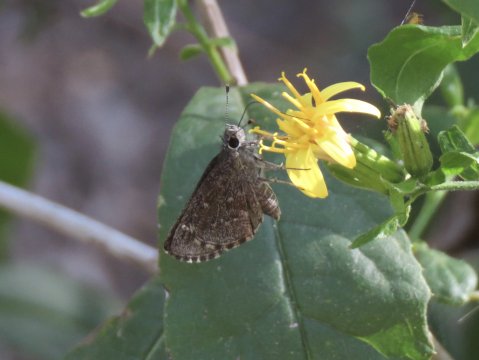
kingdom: Animalia
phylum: Arthropoda
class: Insecta
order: Lepidoptera
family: Hesperiidae
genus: Mastor
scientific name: Mastor celia
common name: Celia's Roadside-Skipper
